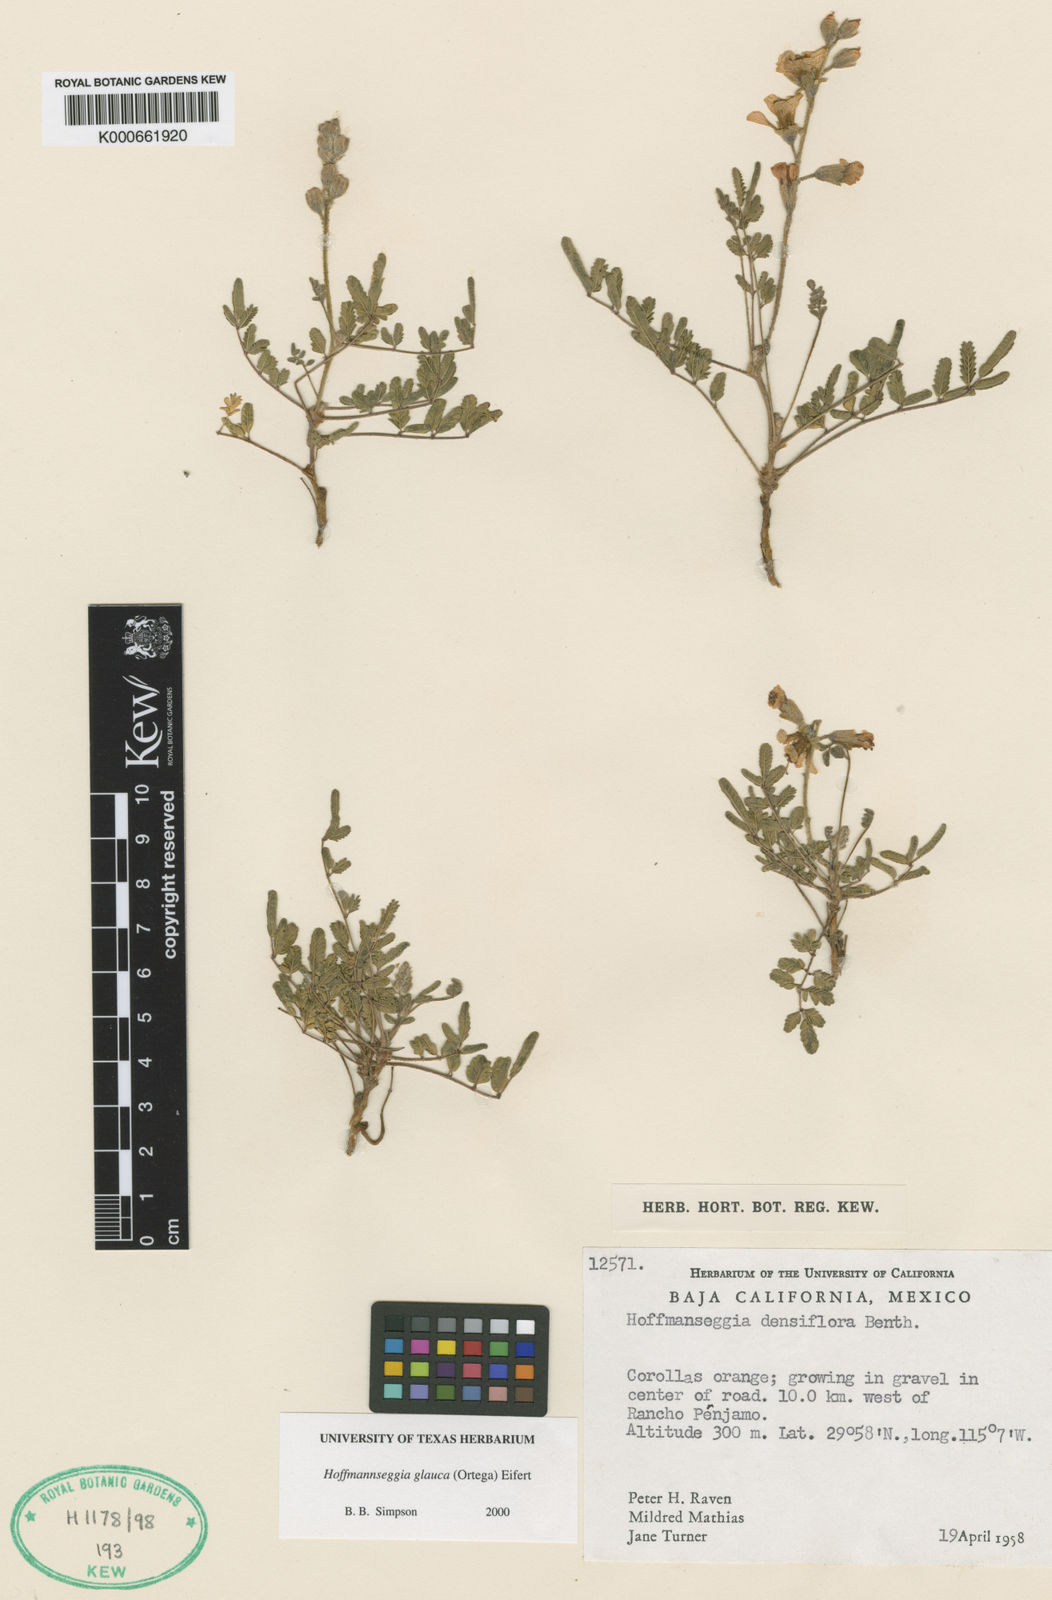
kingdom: Plantae
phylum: Tracheophyta
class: Magnoliopsida
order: Fabales
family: Fabaceae
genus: Hoffmannseggia
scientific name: Hoffmannseggia glauca
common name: Pignut
